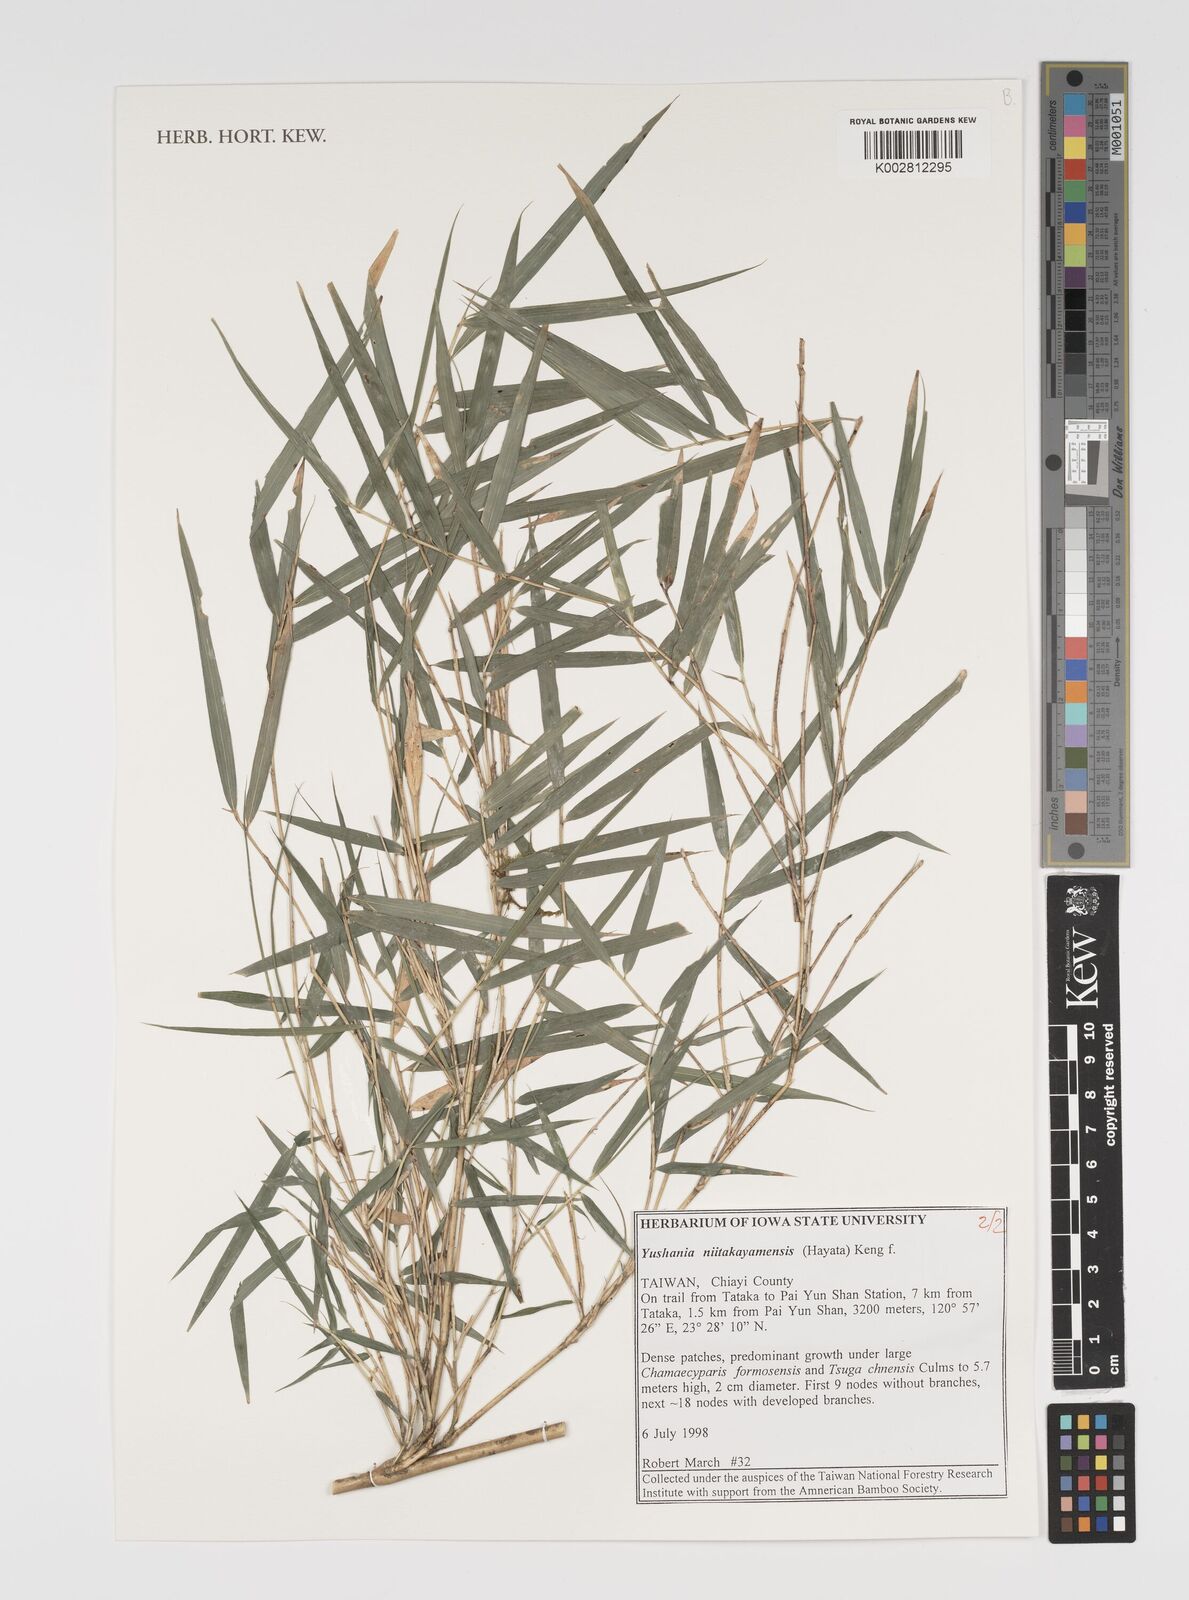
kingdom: Plantae
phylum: Tracheophyta
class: Liliopsida
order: Poales
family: Poaceae
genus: Yushania
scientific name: Yushania niitakayamensis
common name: Yushan cane
